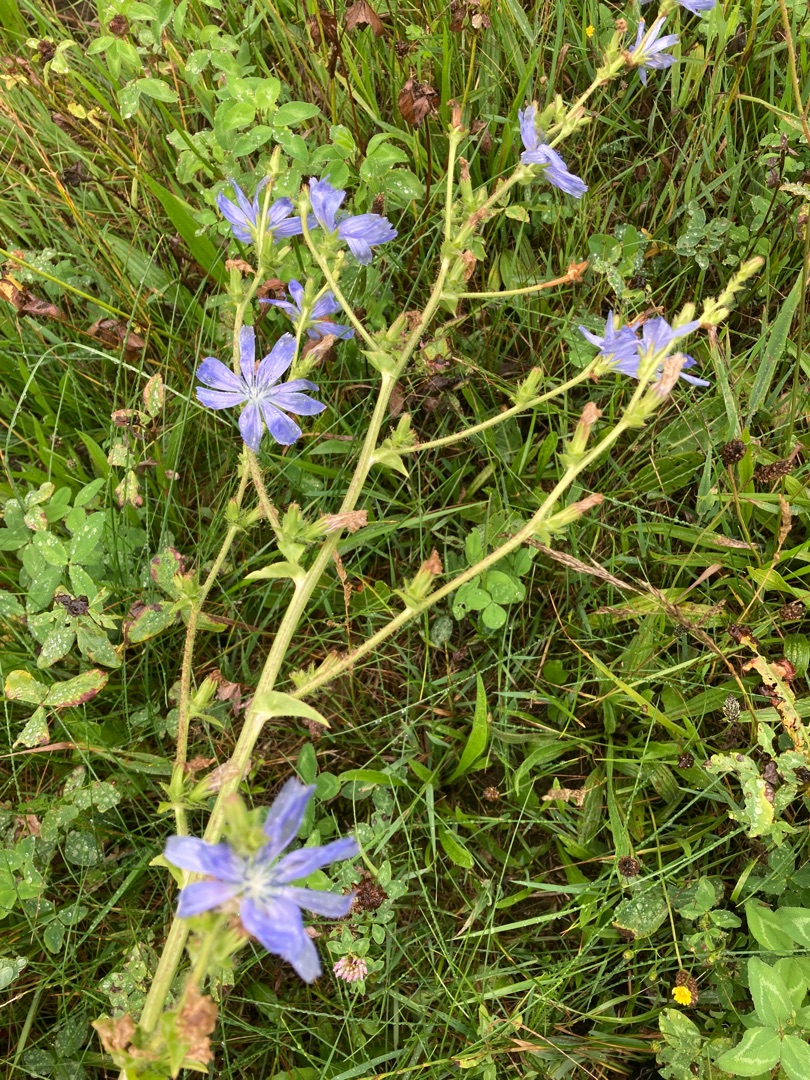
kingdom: Plantae
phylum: Tracheophyta
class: Magnoliopsida
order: Asterales
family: Asteraceae
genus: Cichorium
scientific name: Cichorium intybus
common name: Cikorie
